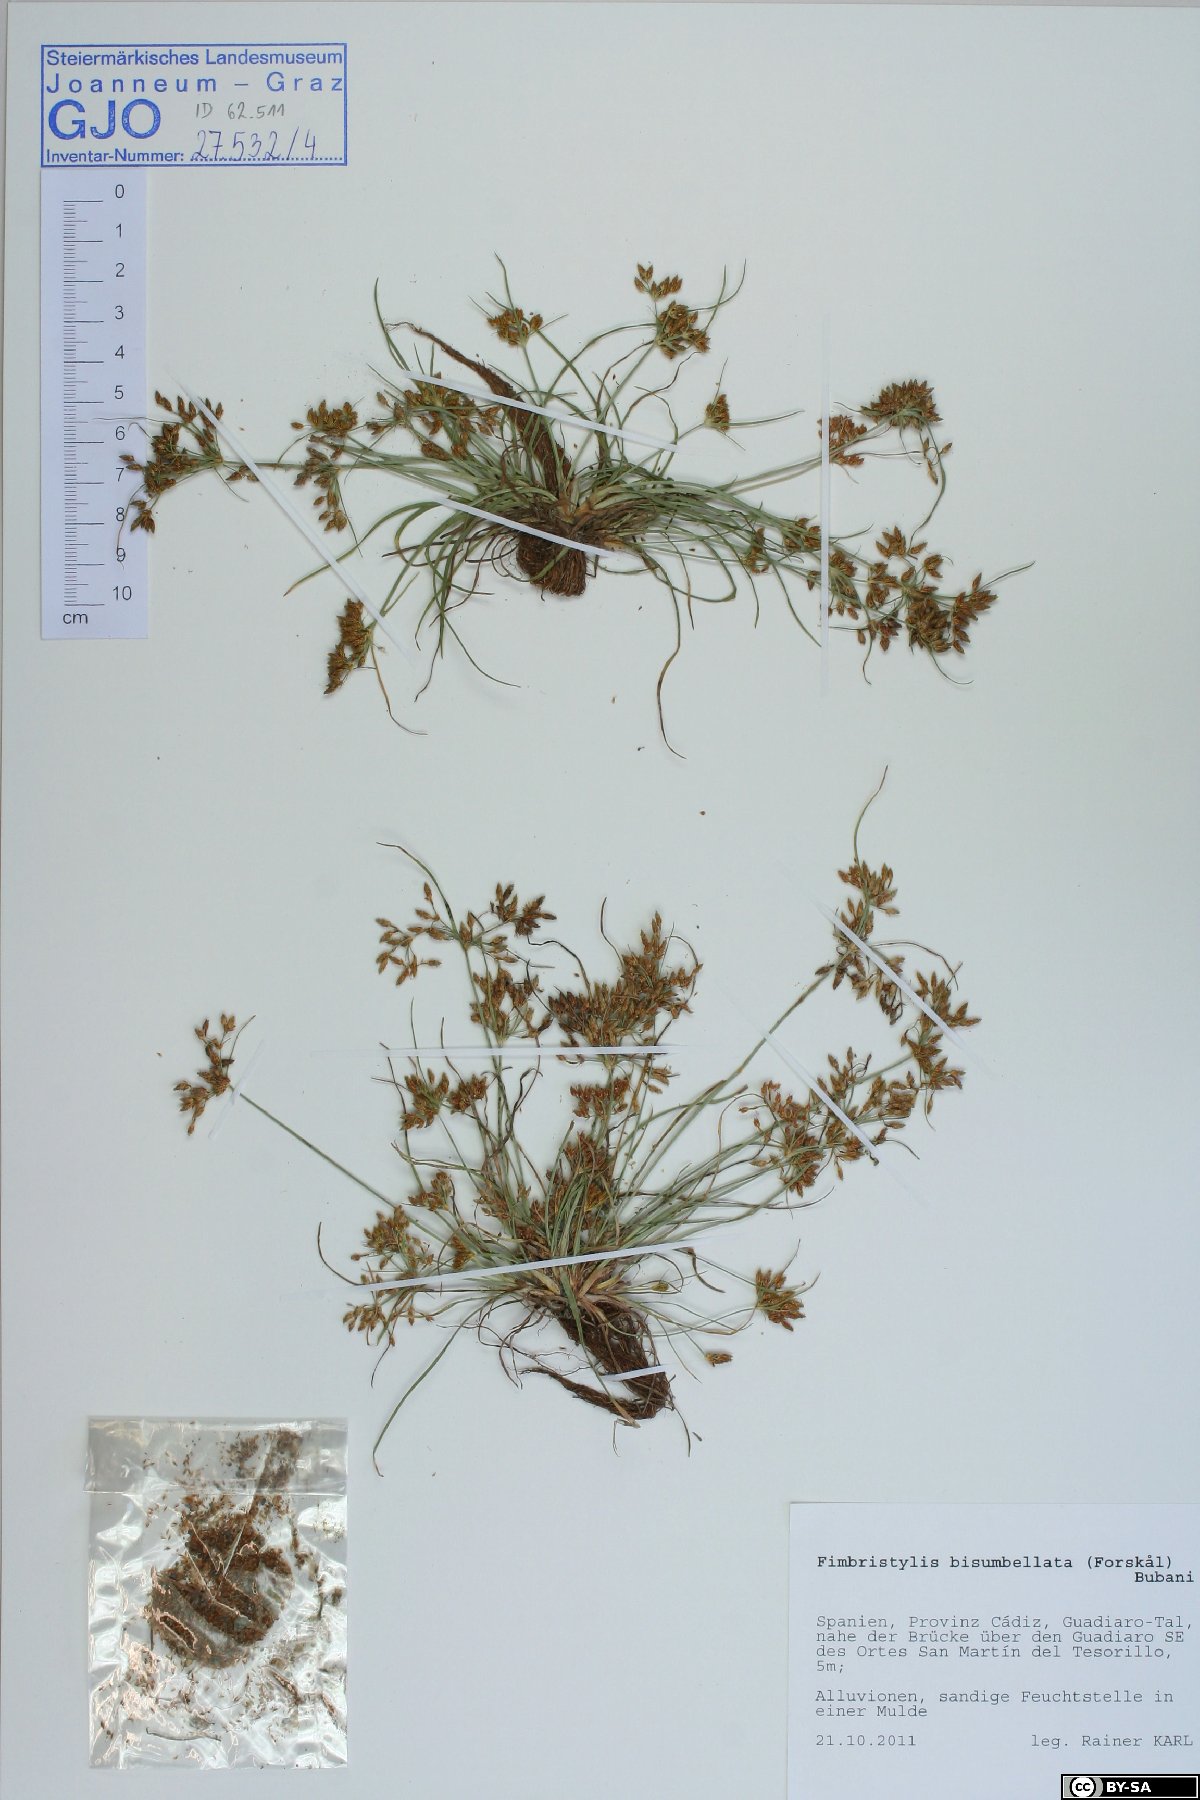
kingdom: Plantae
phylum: Tracheophyta
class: Liliopsida
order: Poales
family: Cyperaceae
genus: Fimbristylis
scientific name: Fimbristylis bisumbellata
